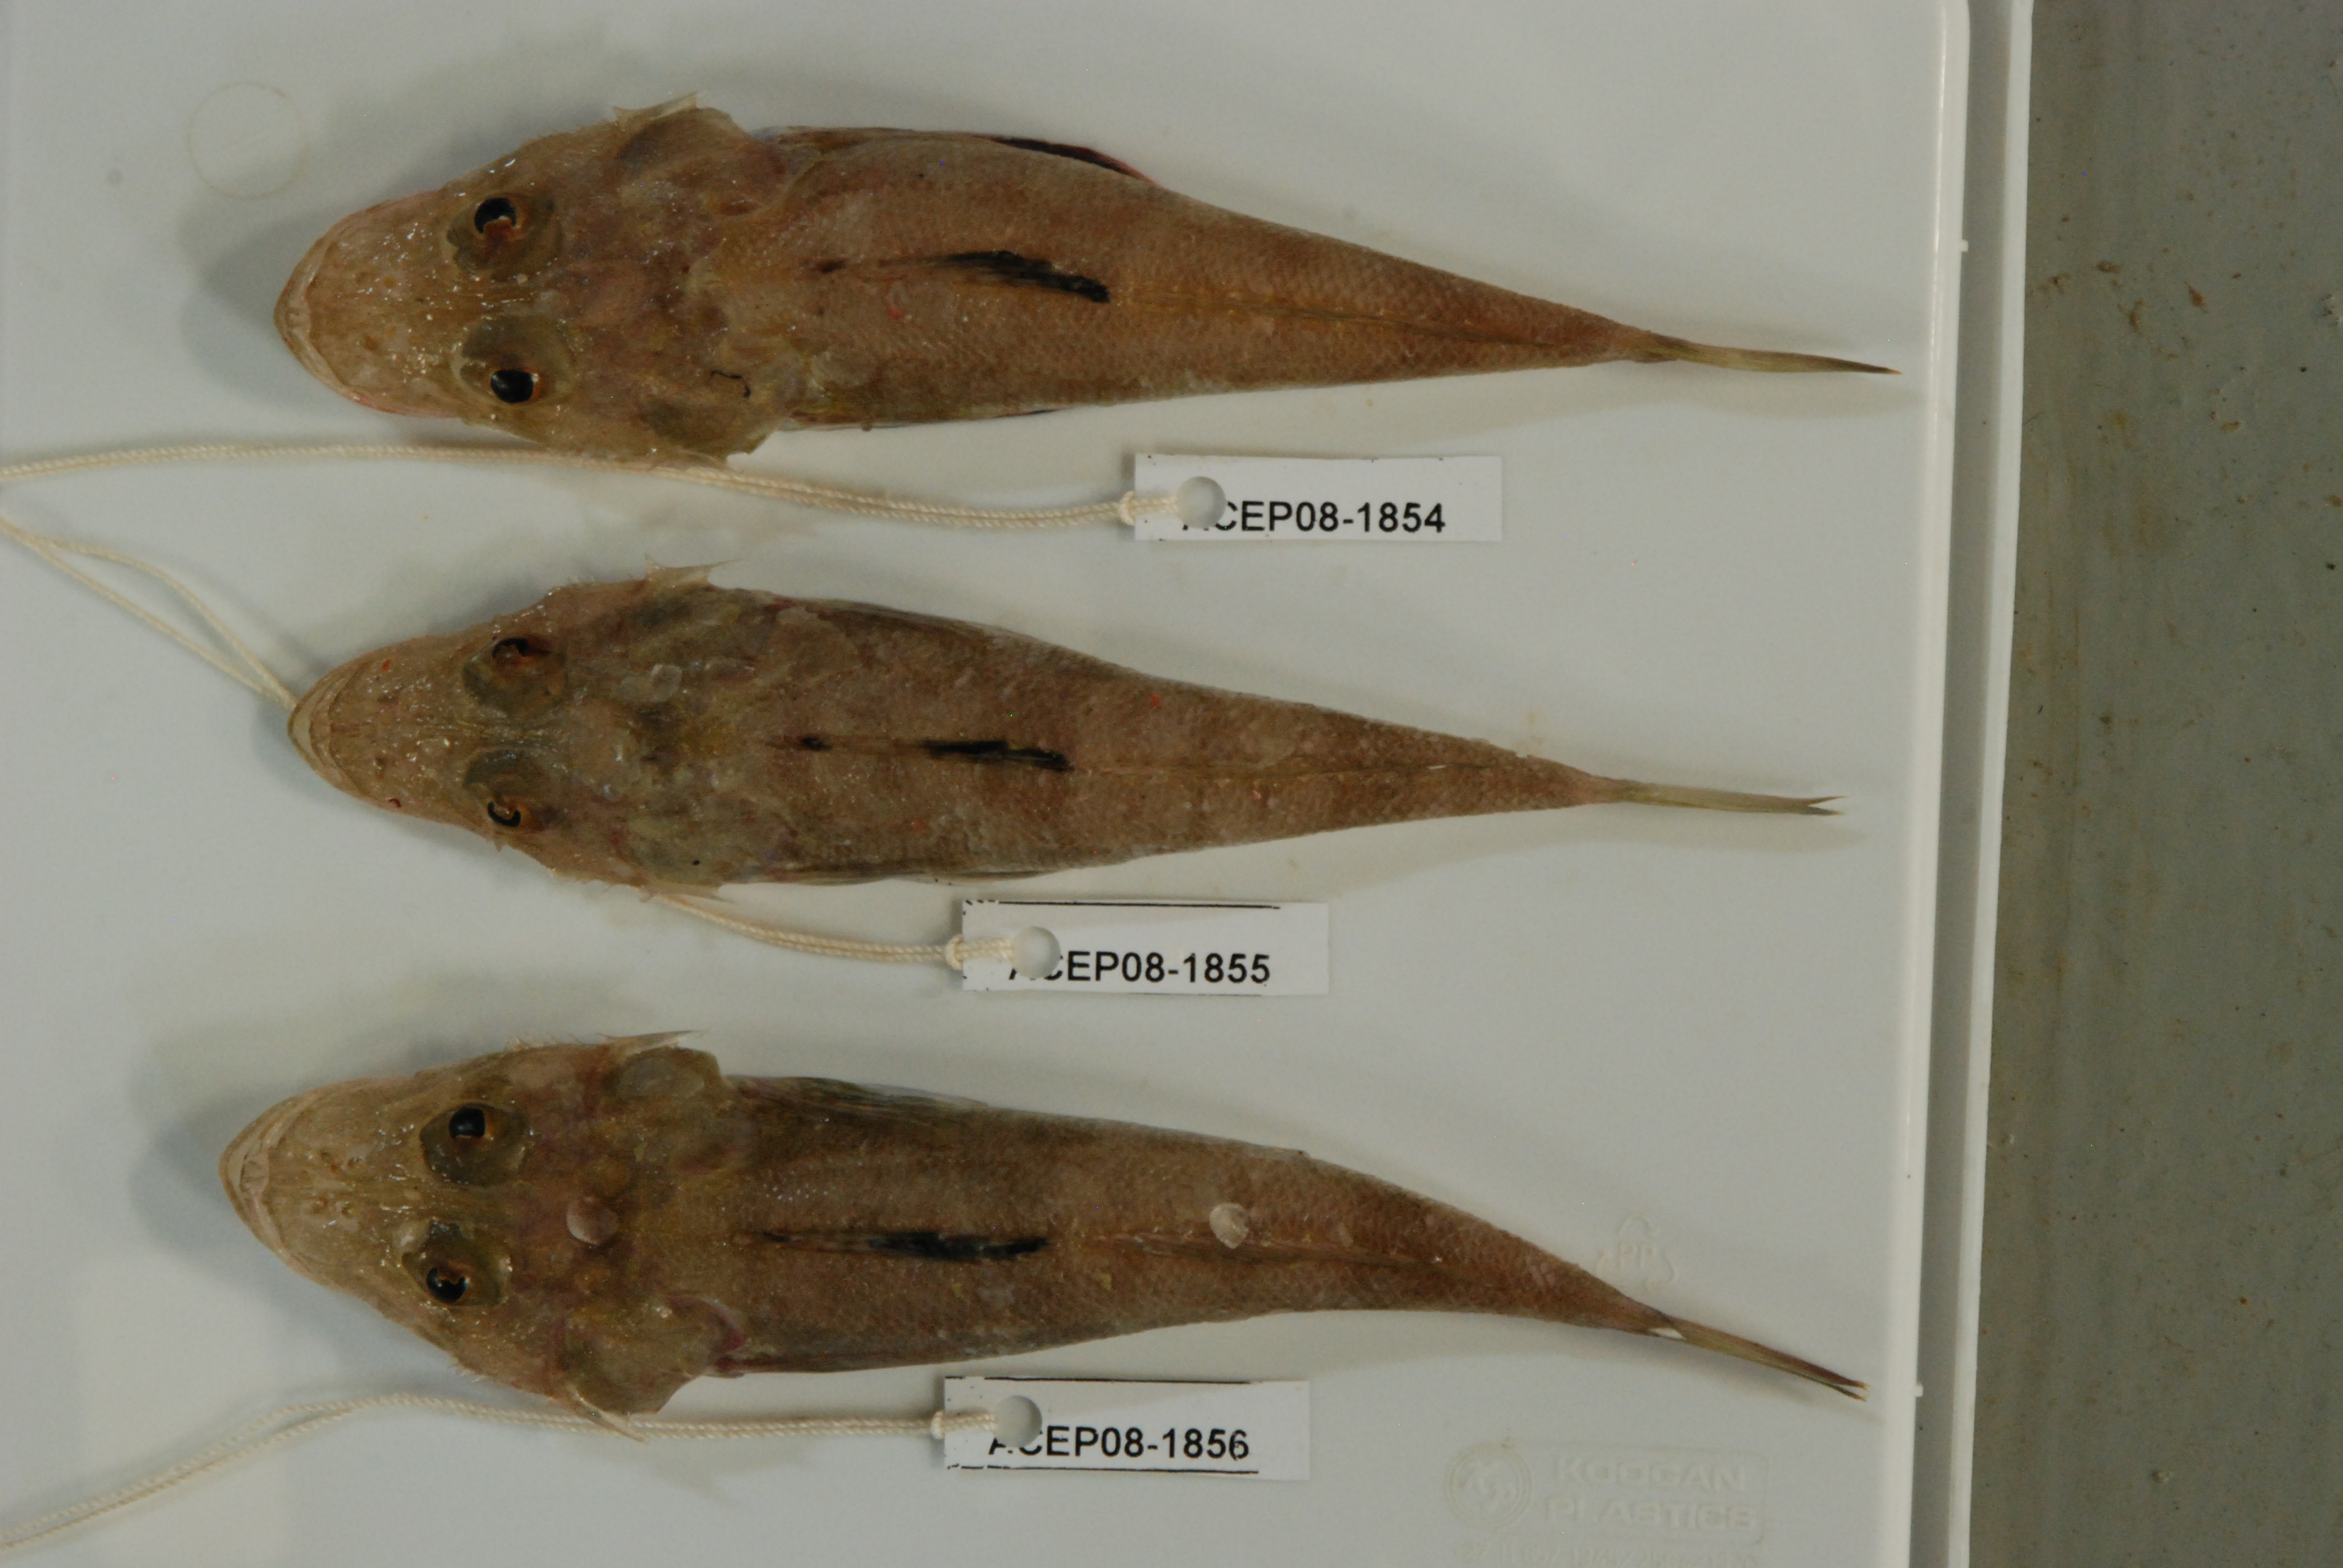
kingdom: Animalia
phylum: Chordata
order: Scorpaeniformes
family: Platycephalidae
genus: Cociella
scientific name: Cociella
